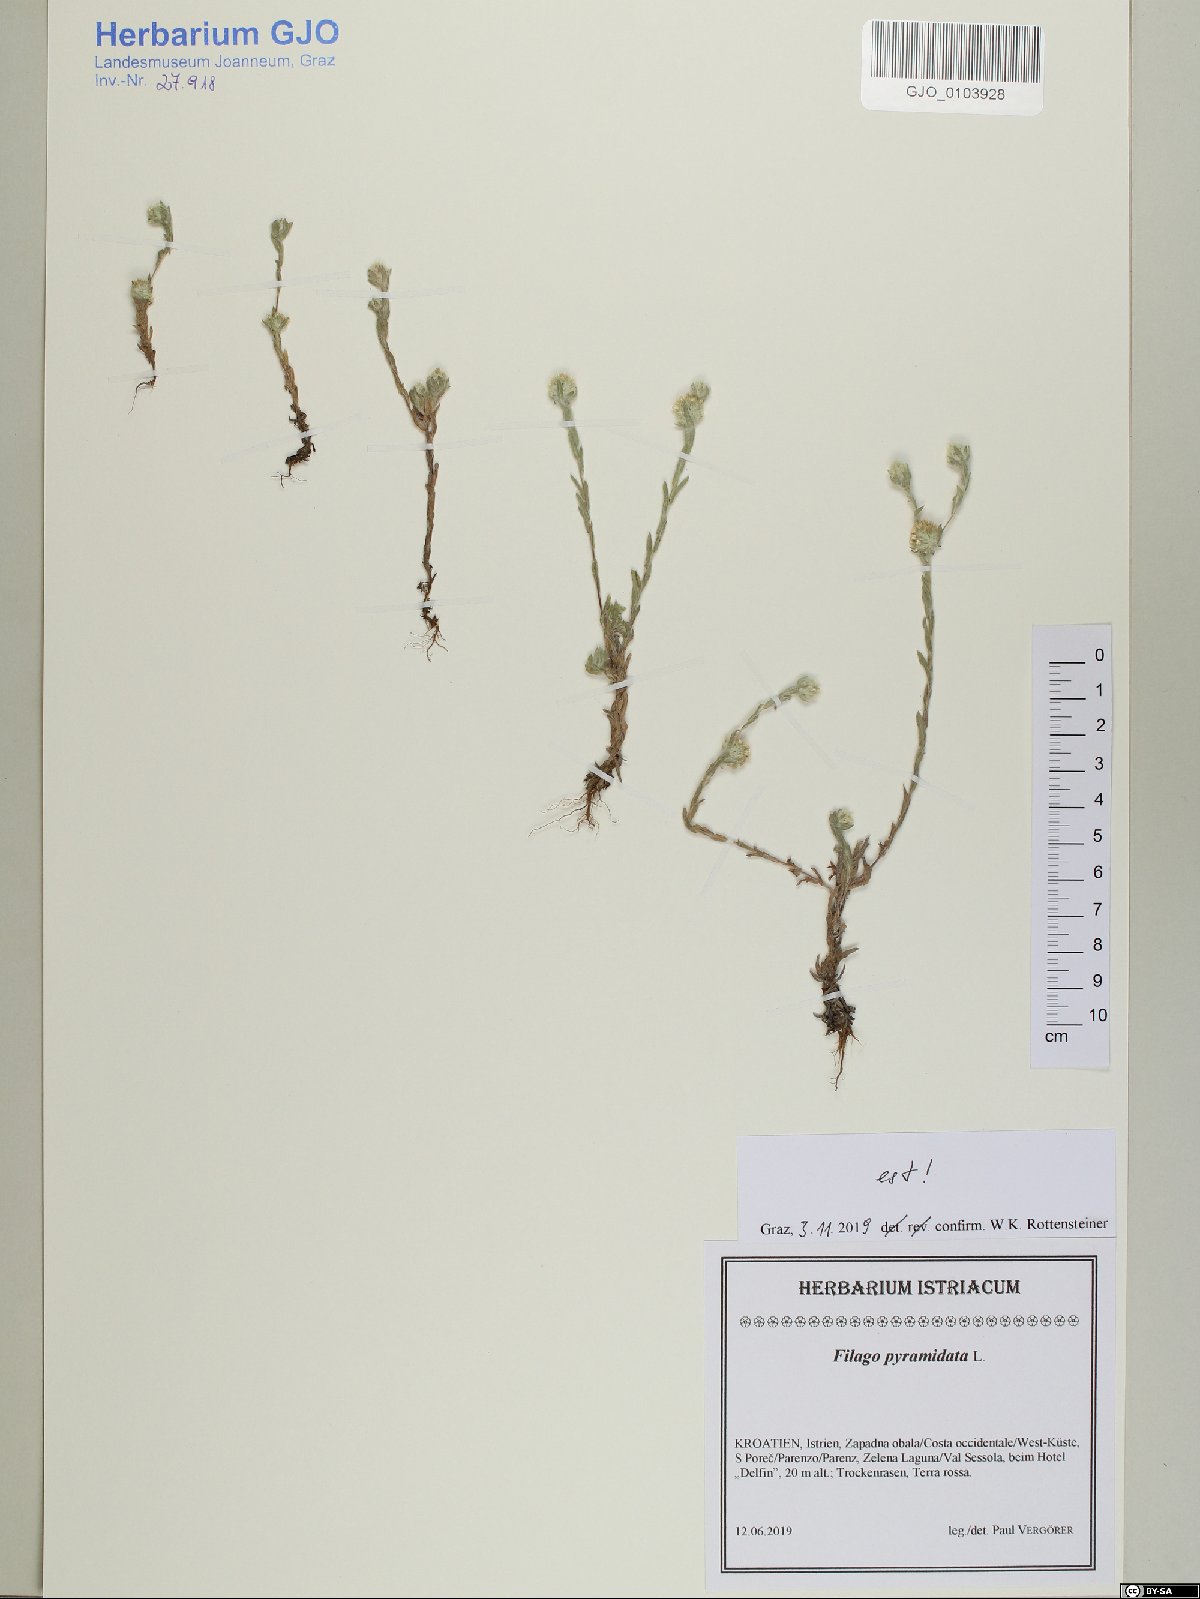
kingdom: Plantae
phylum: Tracheophyta
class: Magnoliopsida
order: Asterales
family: Asteraceae
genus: Filago
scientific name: Filago pyramidata
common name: Broad-leaved cudweed
